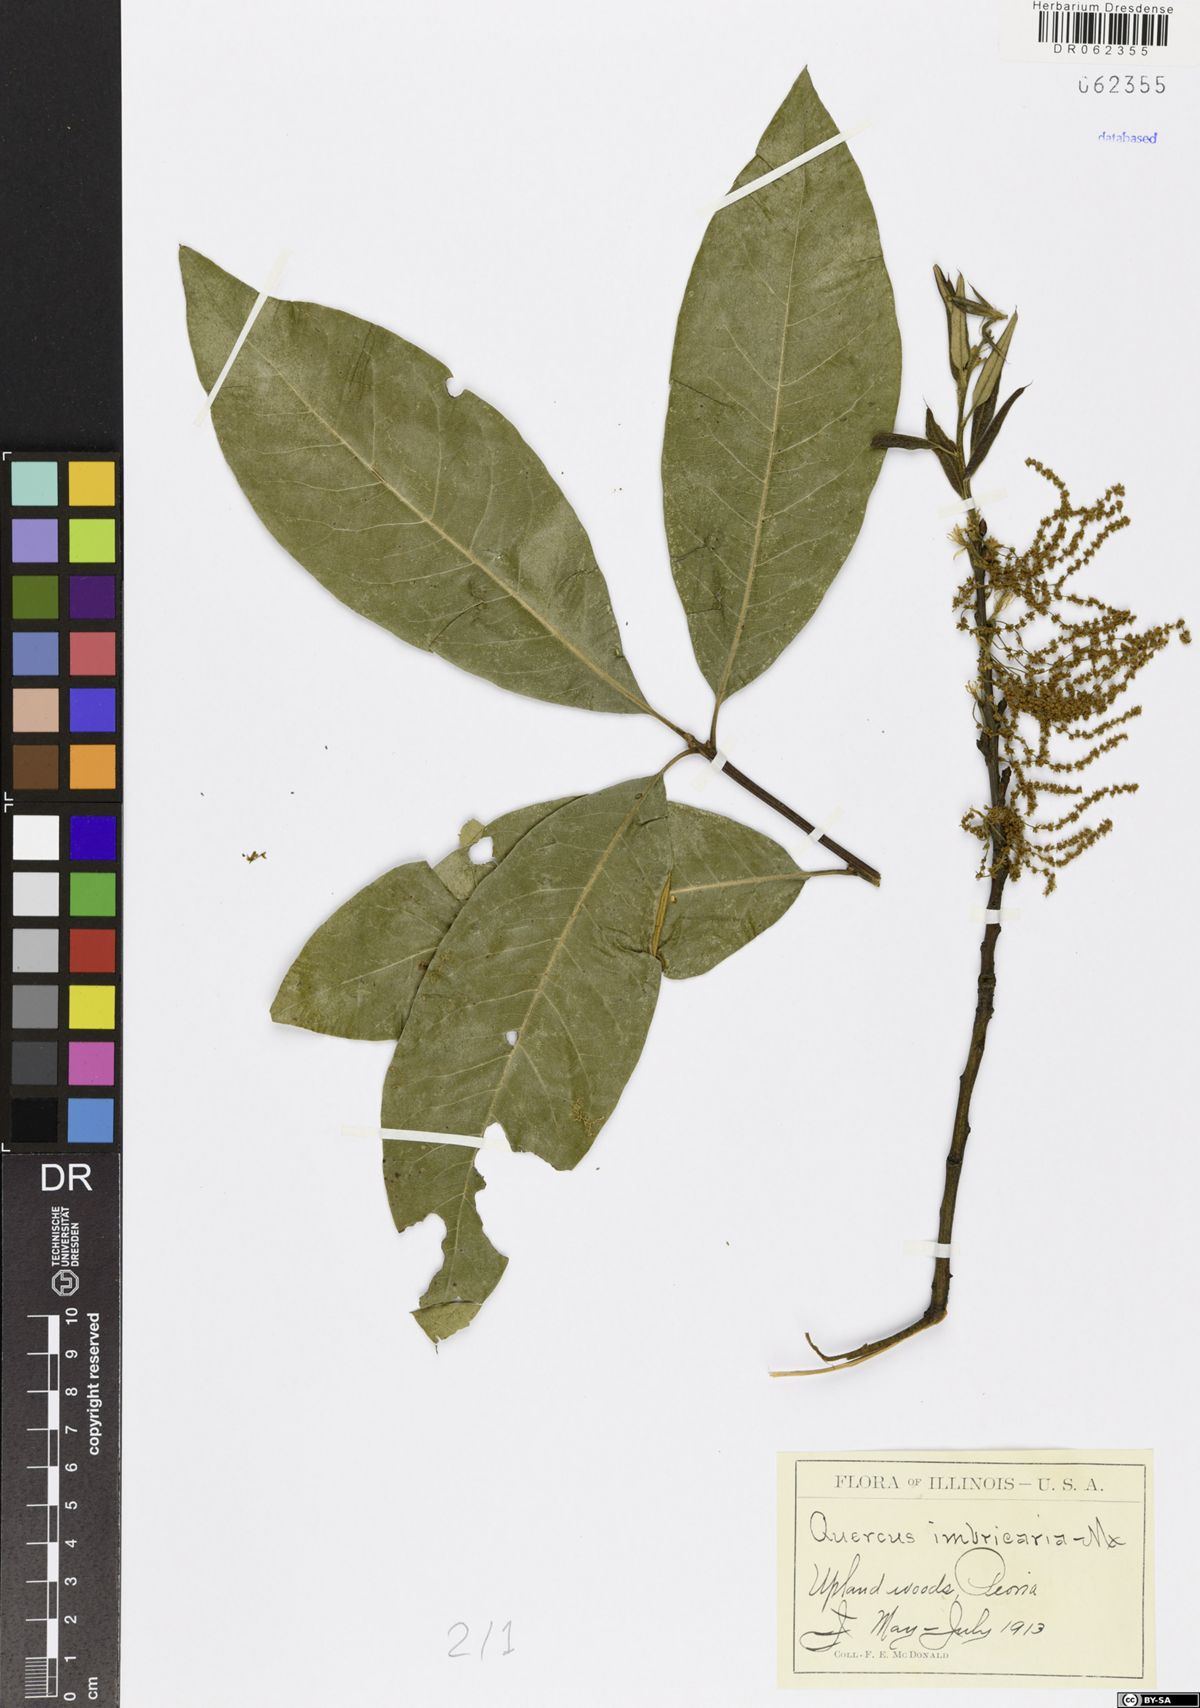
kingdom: Plantae
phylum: Tracheophyta
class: Magnoliopsida
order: Fagales
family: Fagaceae
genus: Quercus
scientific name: Quercus imbricaria
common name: Shingle oak
